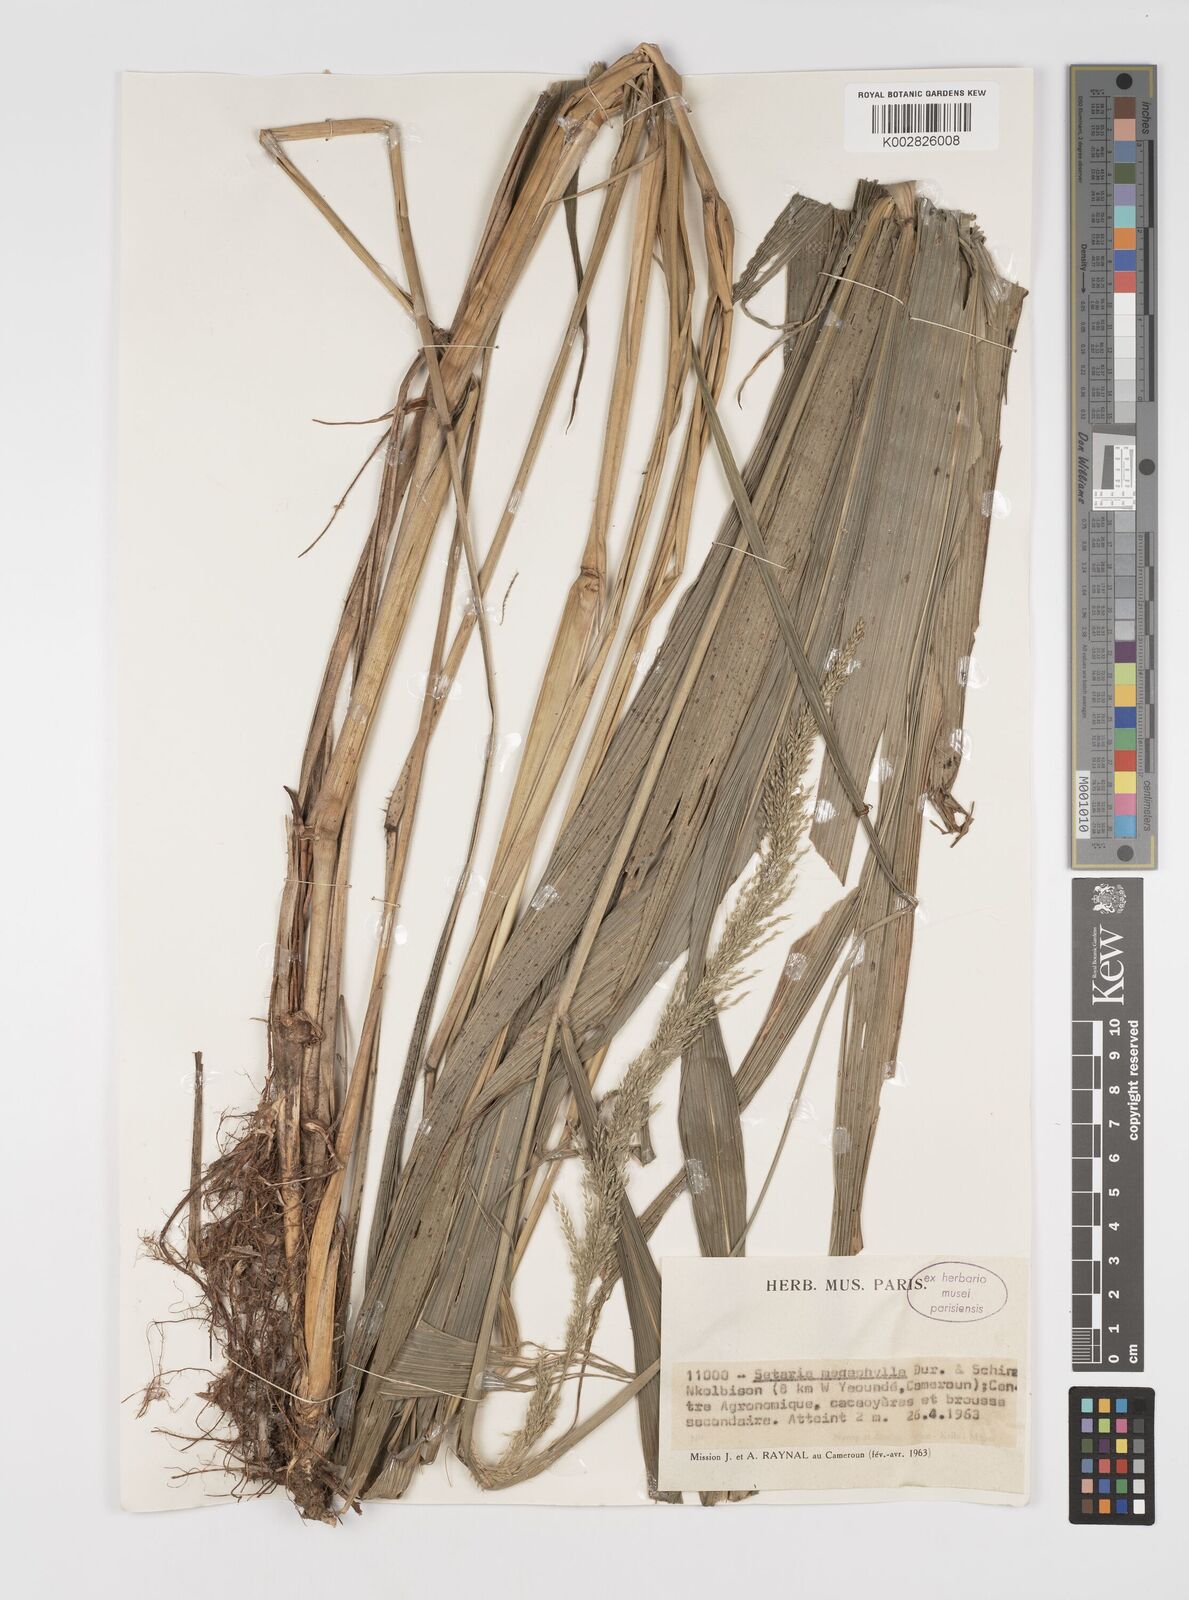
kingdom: Plantae
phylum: Tracheophyta
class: Liliopsida
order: Poales
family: Poaceae
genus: Setaria
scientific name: Setaria megaphylla
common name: Bigleaf bristlegrass
